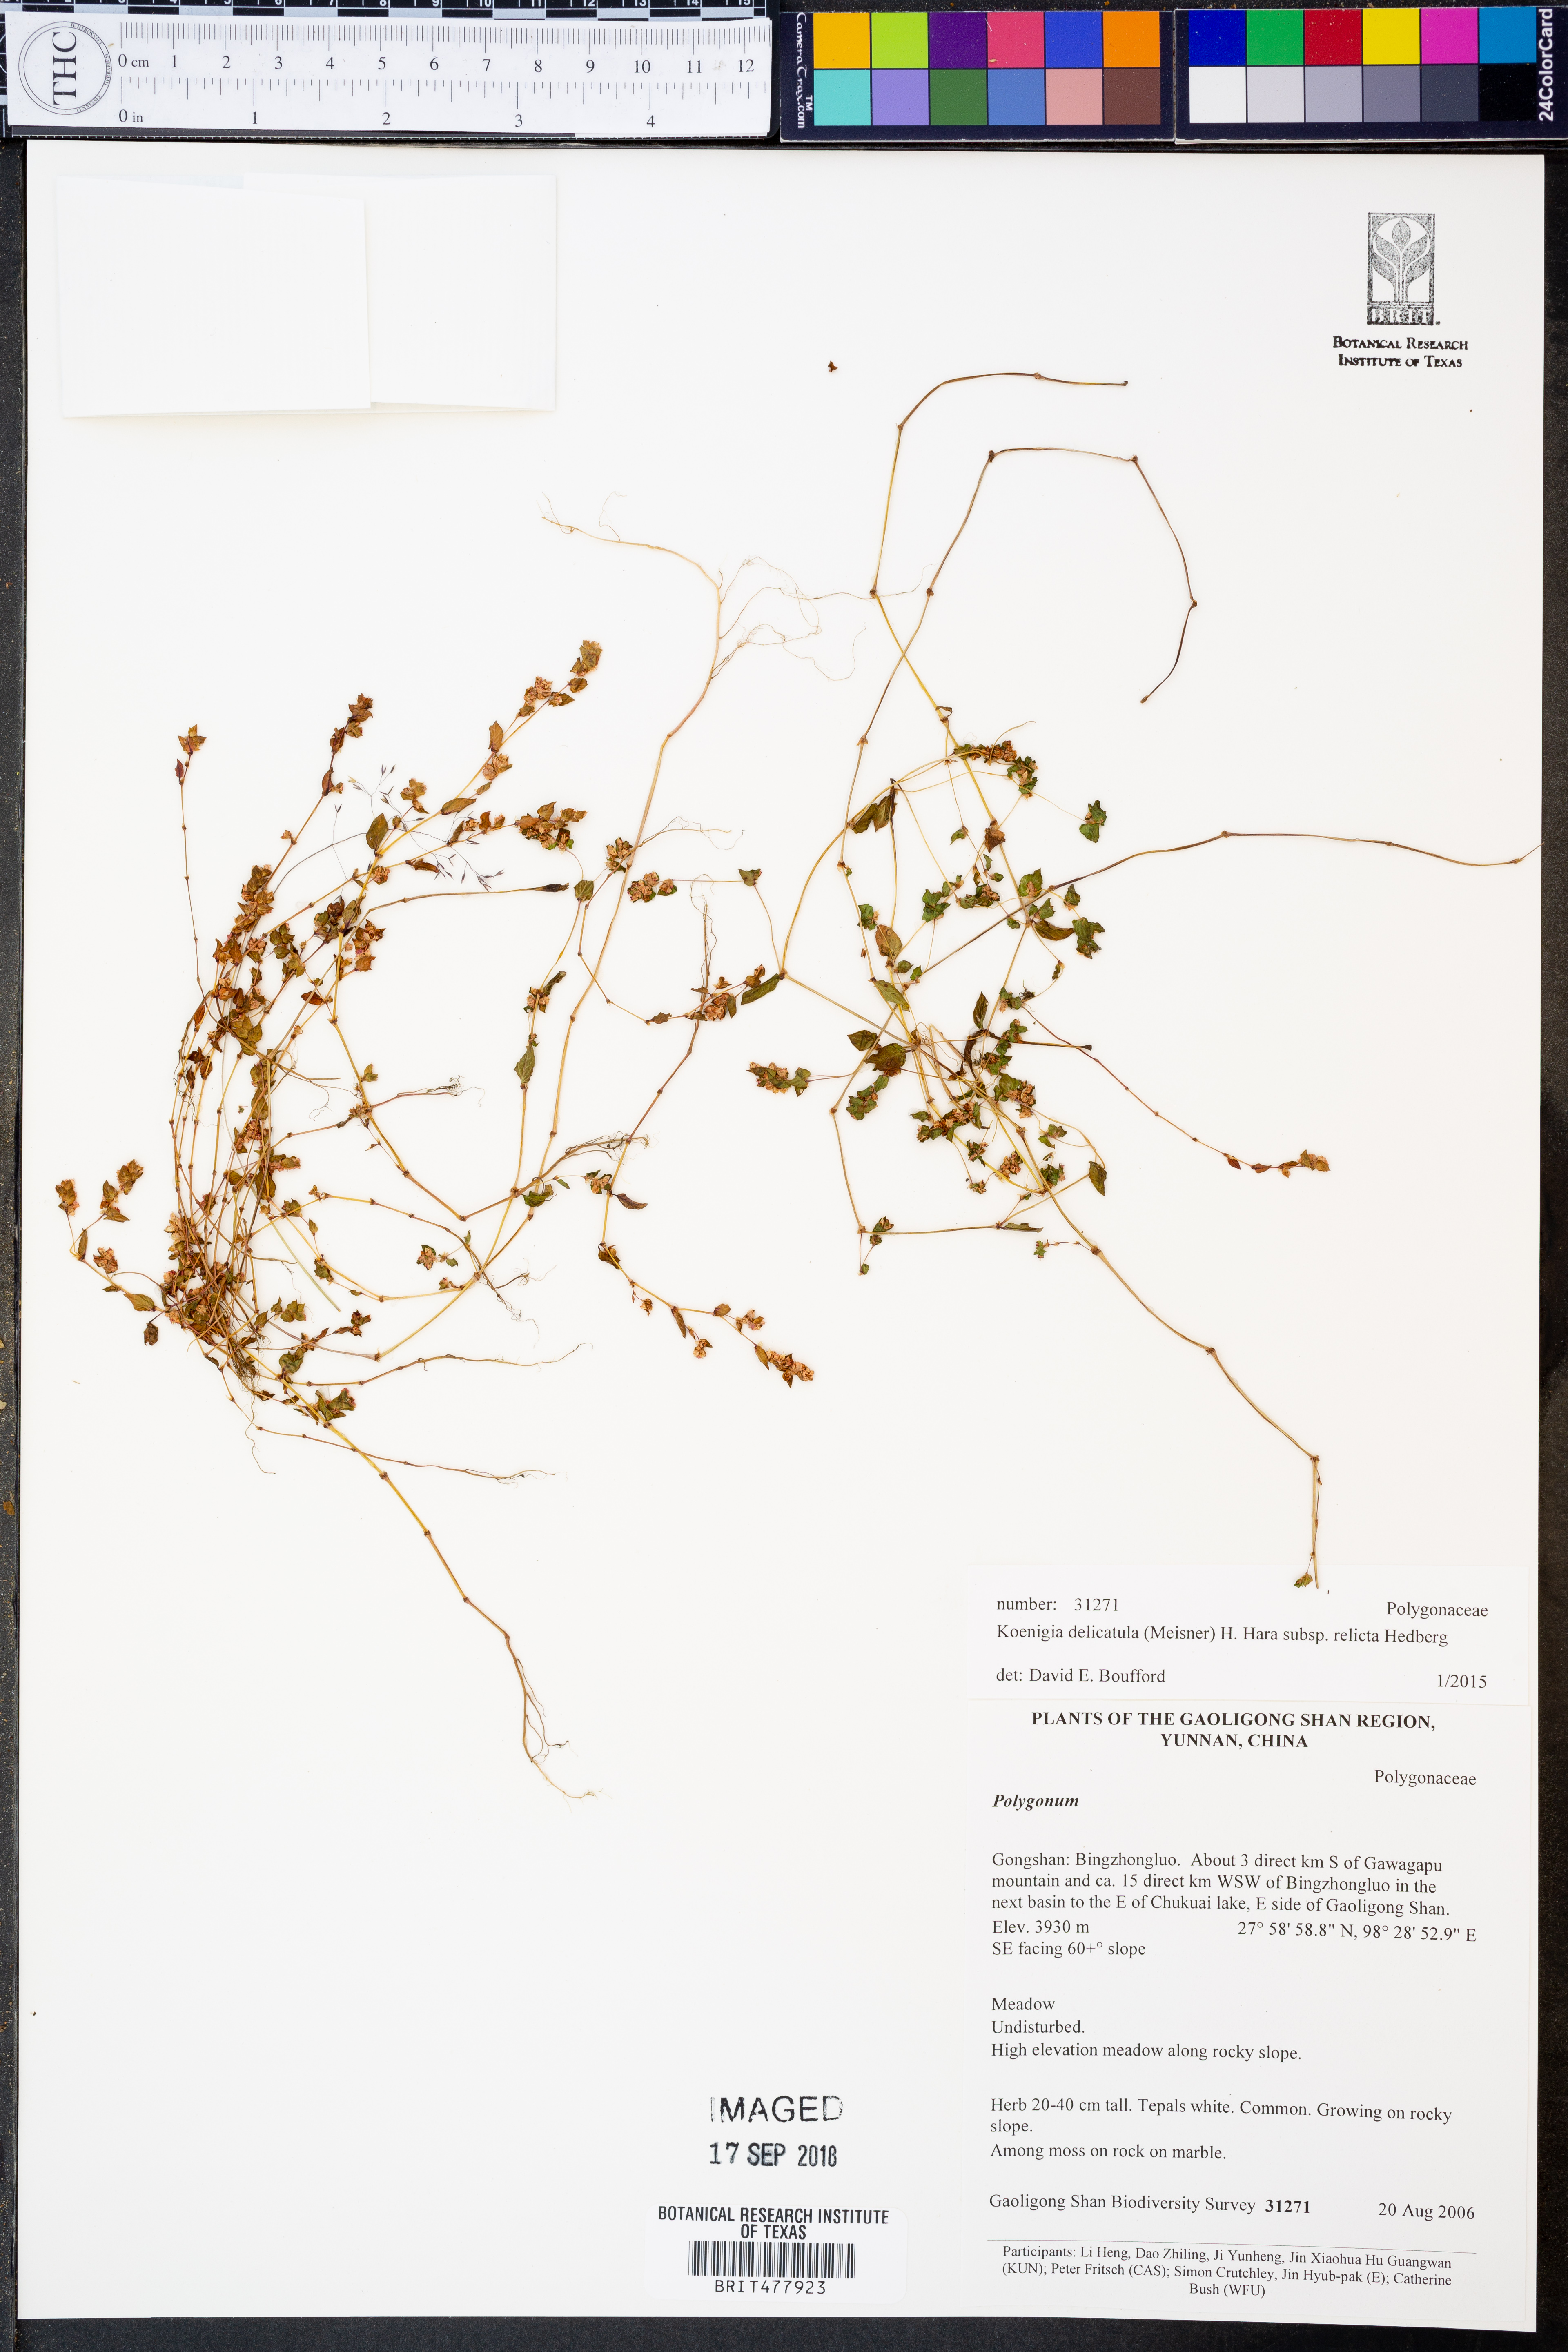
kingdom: Plantae
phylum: Tracheophyta
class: Magnoliopsida
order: Caryophyllales
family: Polygonaceae
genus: Koenigia
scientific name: Koenigia delicatula
